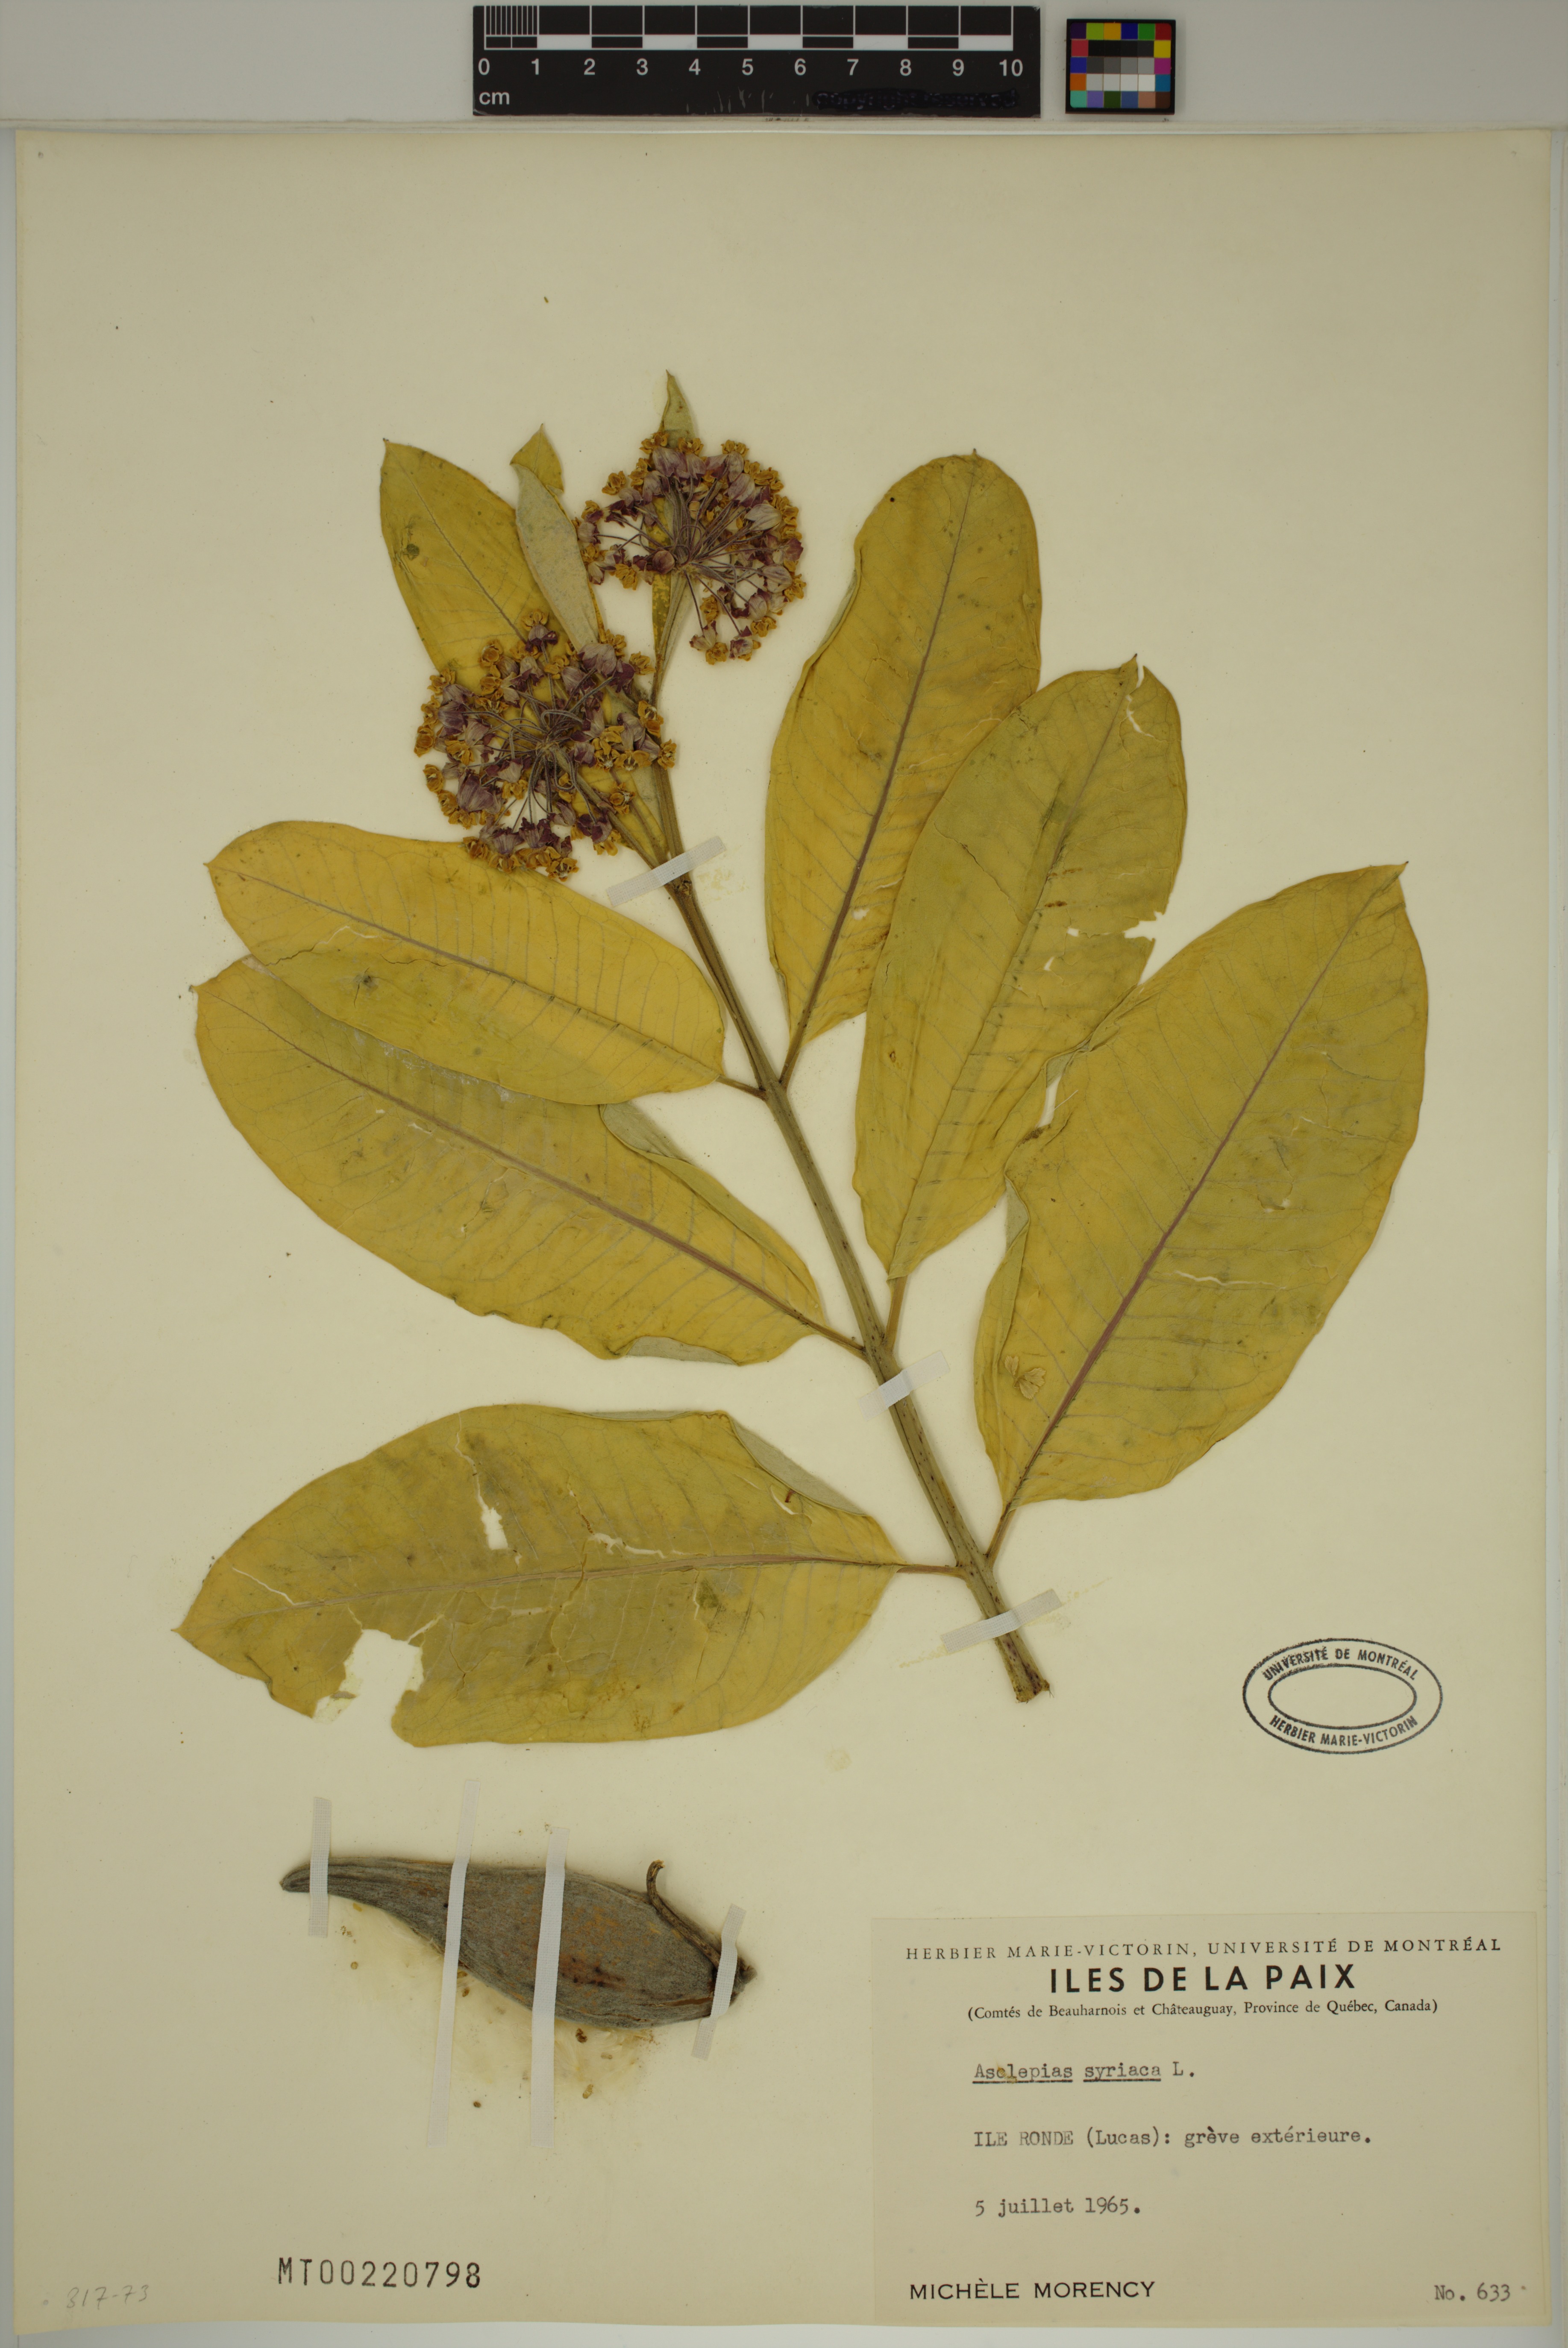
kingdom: Plantae
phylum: Tracheophyta
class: Magnoliopsida
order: Gentianales
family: Apocynaceae
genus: Asclepias
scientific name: Asclepias syriaca
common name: Common milkweed
